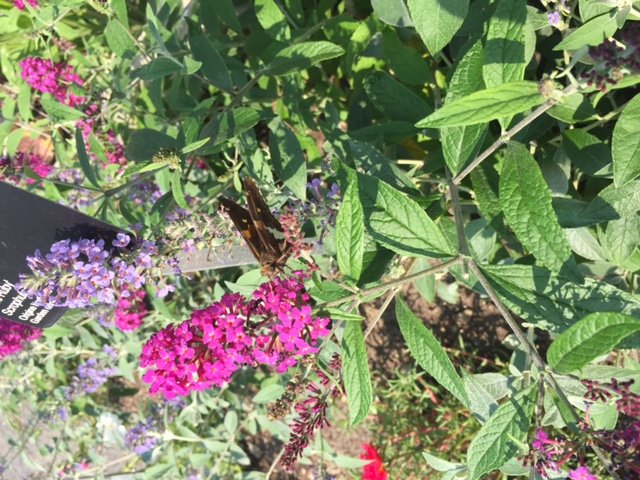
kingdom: Animalia
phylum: Arthropoda
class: Insecta
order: Lepidoptera
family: Hesperiidae
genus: Epargyreus
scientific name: Epargyreus clarus
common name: Silver-spotted Skipper
